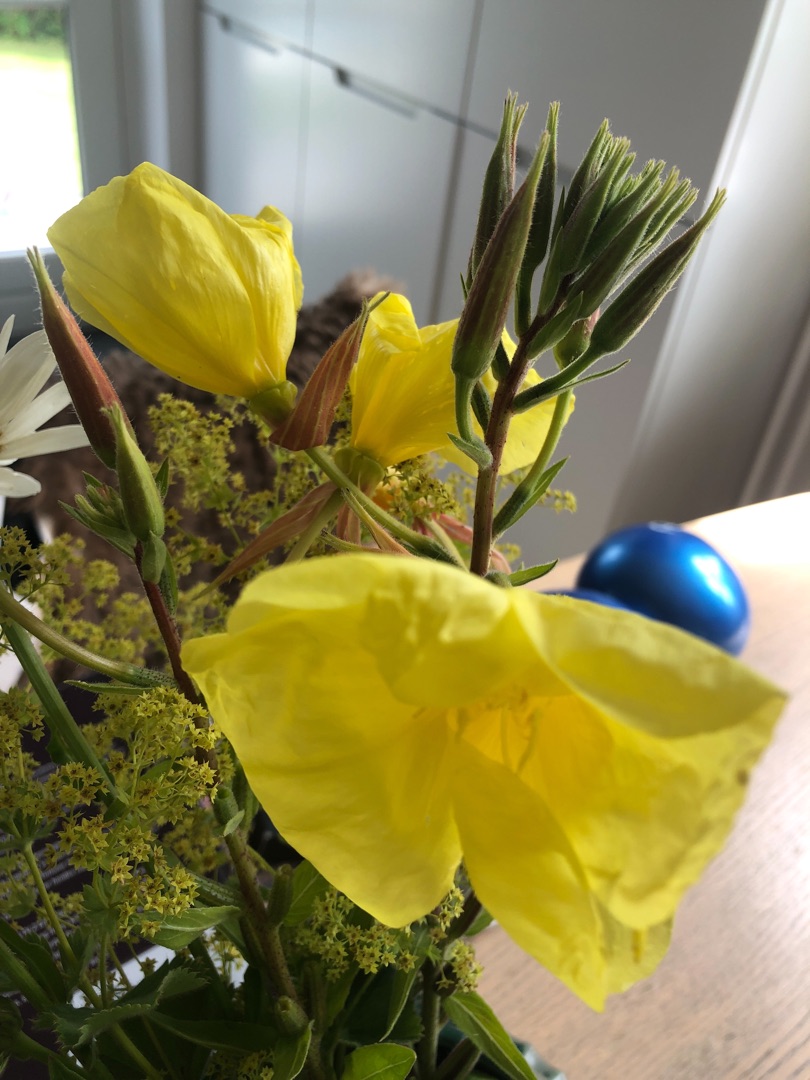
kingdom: Plantae
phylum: Tracheophyta
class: Magnoliopsida
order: Myrtales
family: Onagraceae
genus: Oenothera
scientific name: Oenothera glazioviana
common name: Kæmpe-natlys
